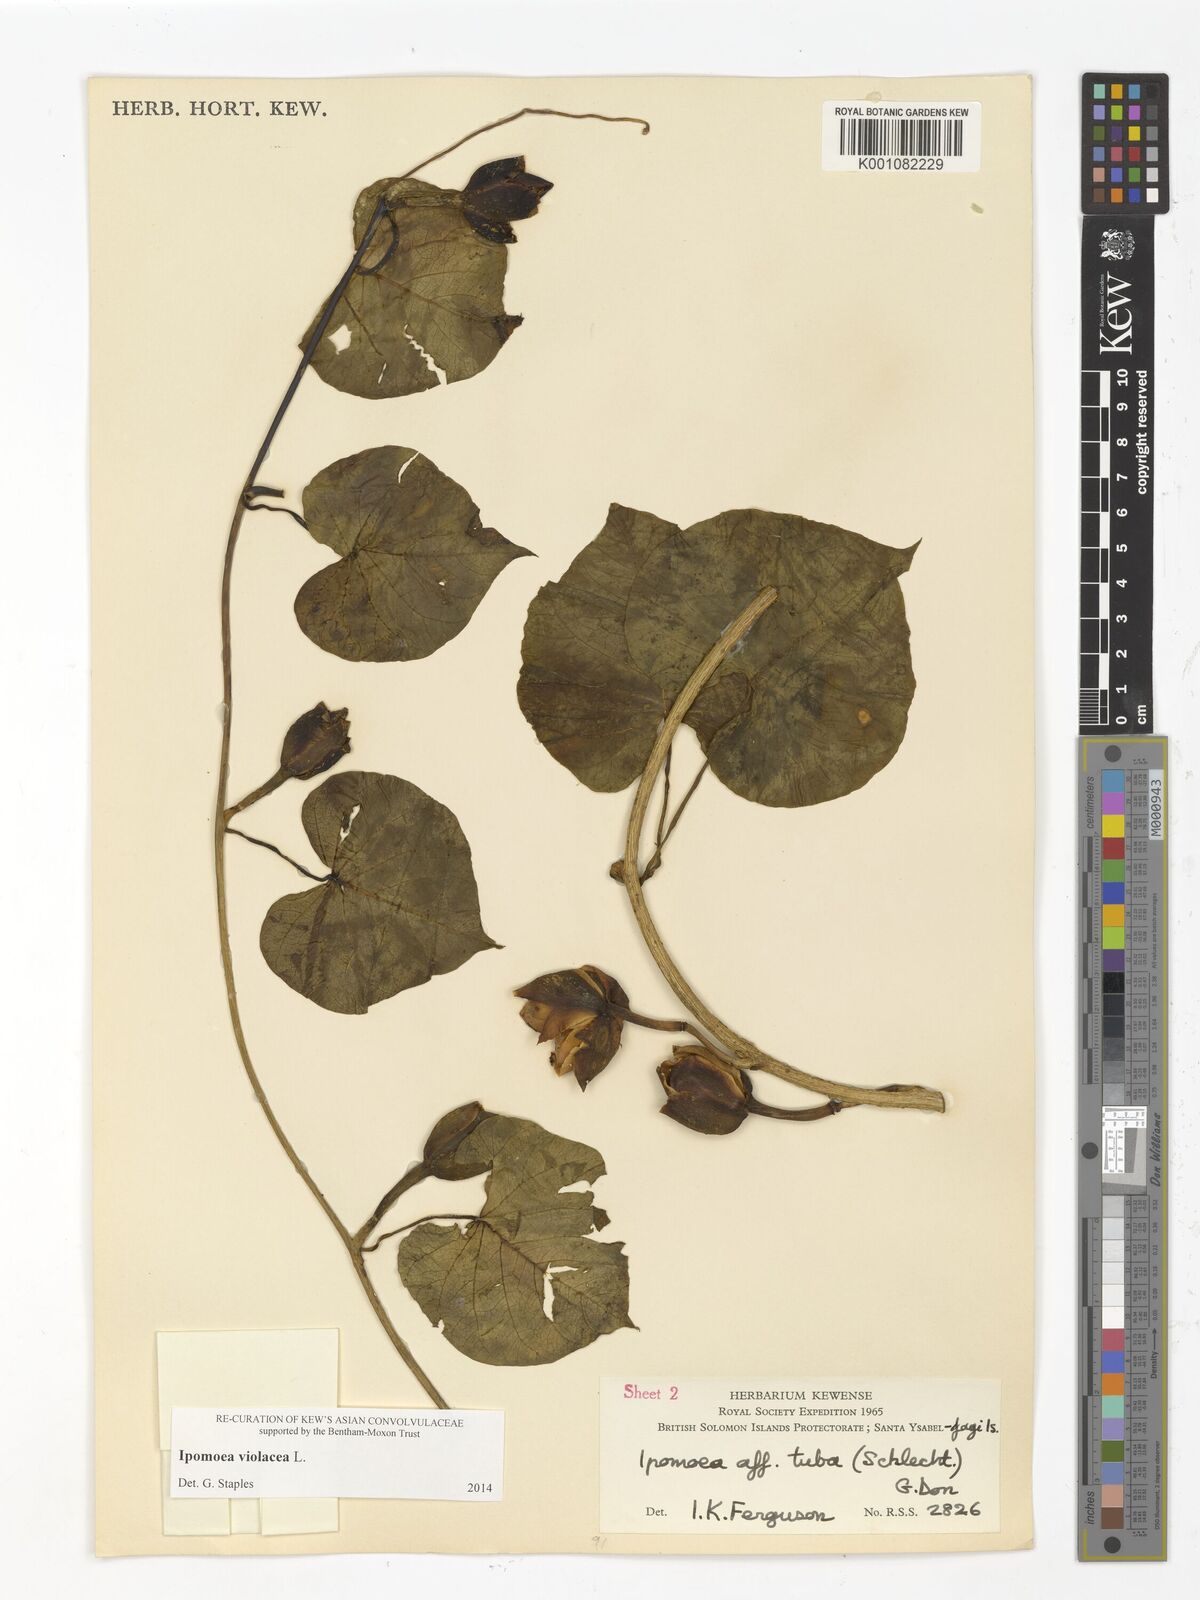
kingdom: Plantae
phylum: Tracheophyta
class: Magnoliopsida
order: Solanales
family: Convolvulaceae
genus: Ipomoea
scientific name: Ipomoea violacea
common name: Beach moonflower
